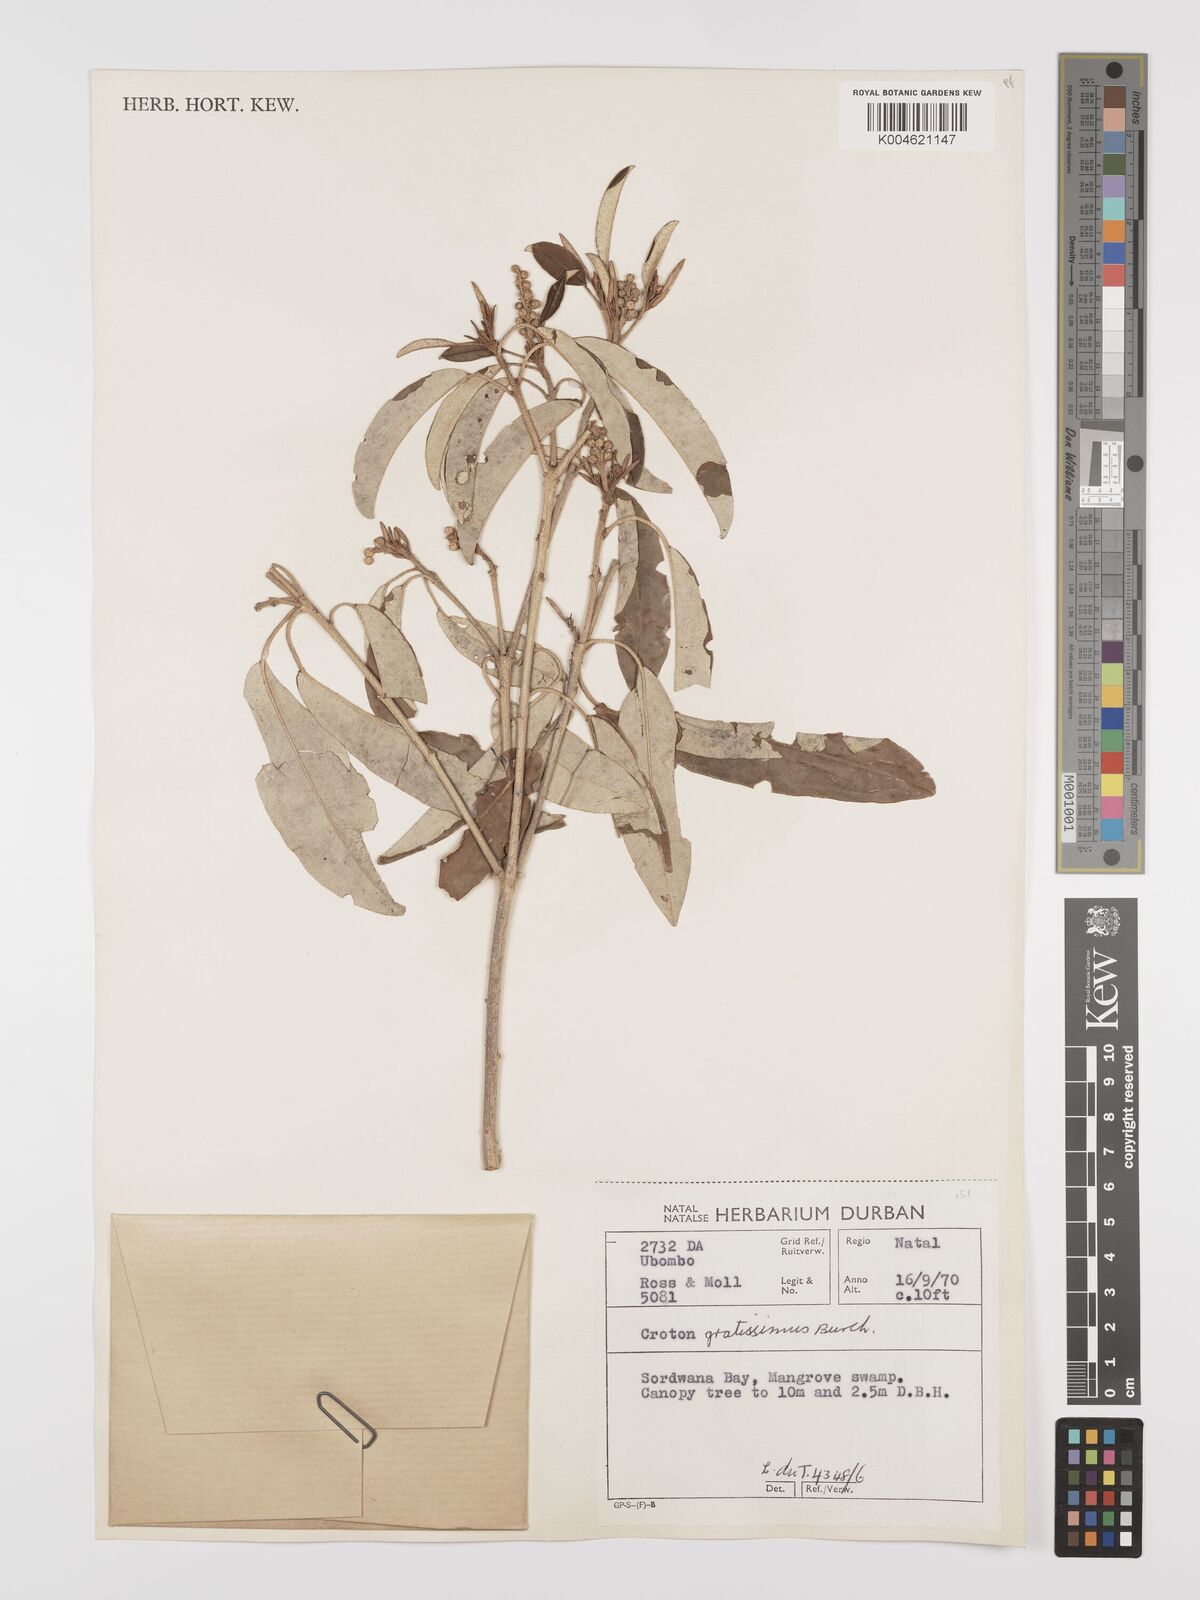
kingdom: Plantae
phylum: Tracheophyta
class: Magnoliopsida
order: Malpighiales
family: Euphorbiaceae
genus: Croton
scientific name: Croton gratissimus
